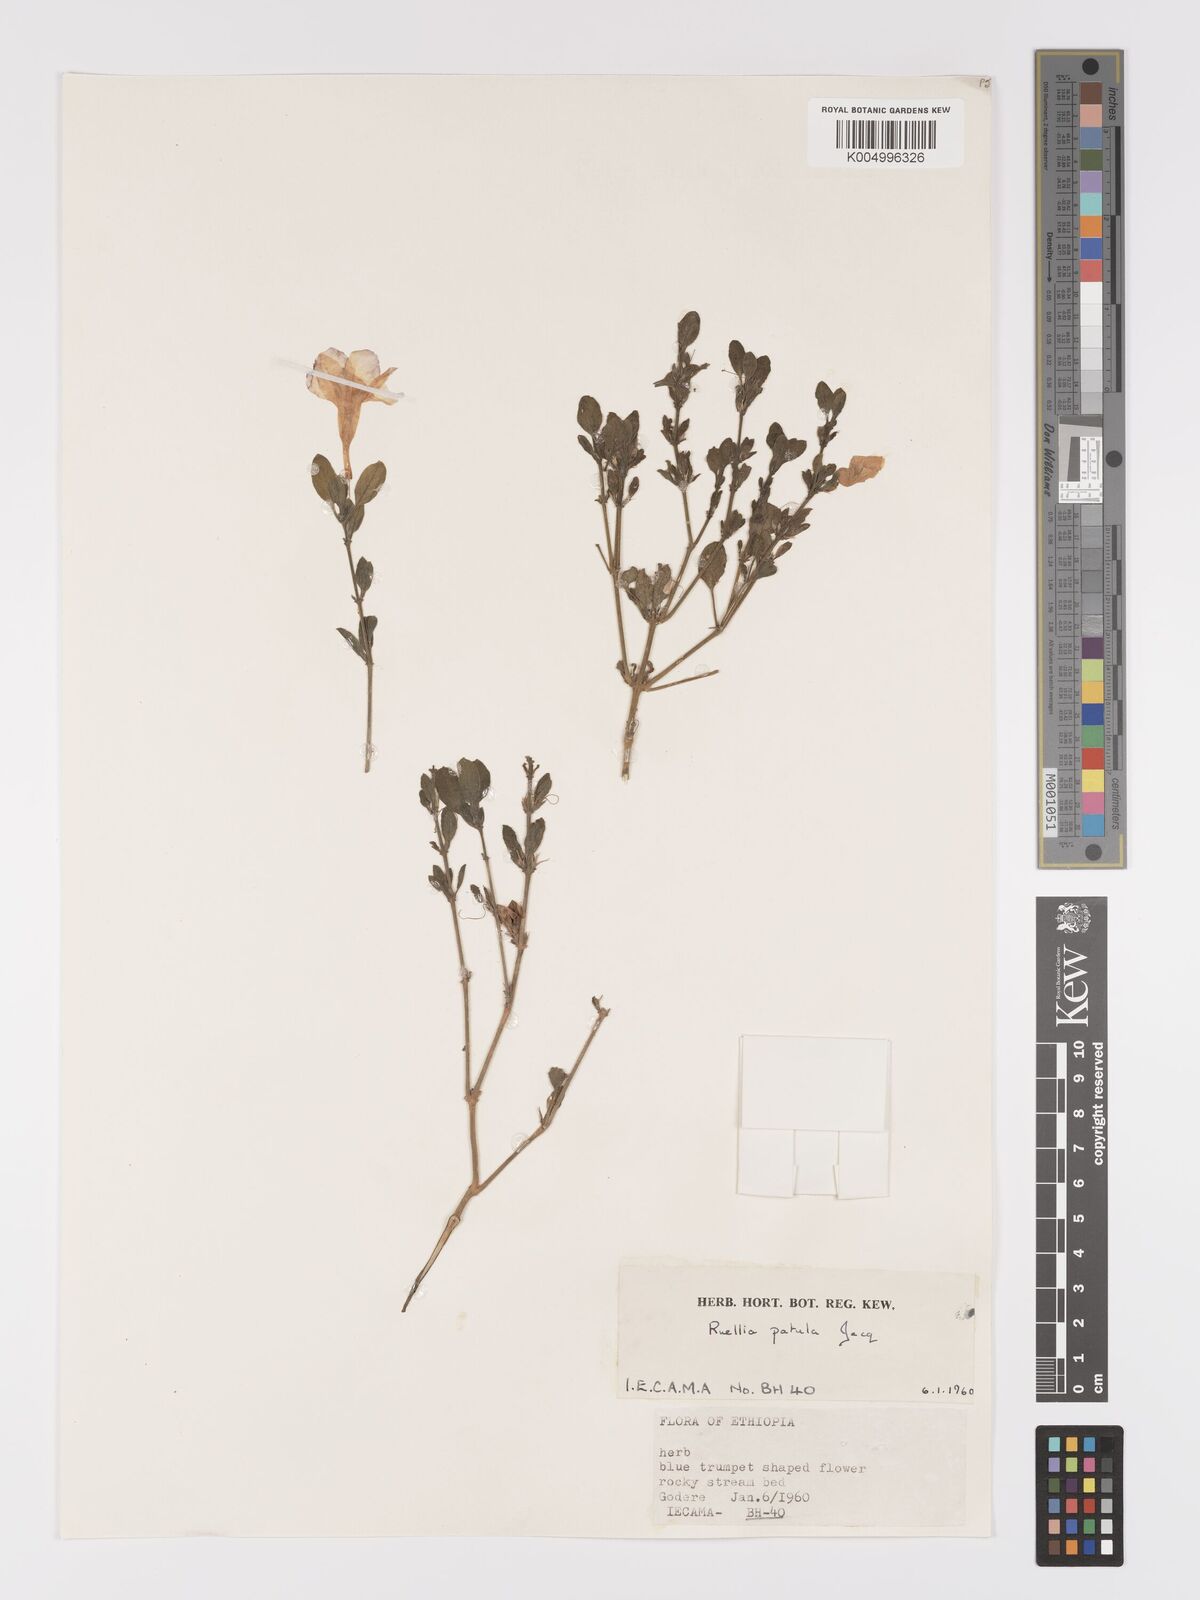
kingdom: Plantae
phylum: Tracheophyta
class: Magnoliopsida
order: Lamiales
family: Acanthaceae
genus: Ruellia
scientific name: Ruellia patula
